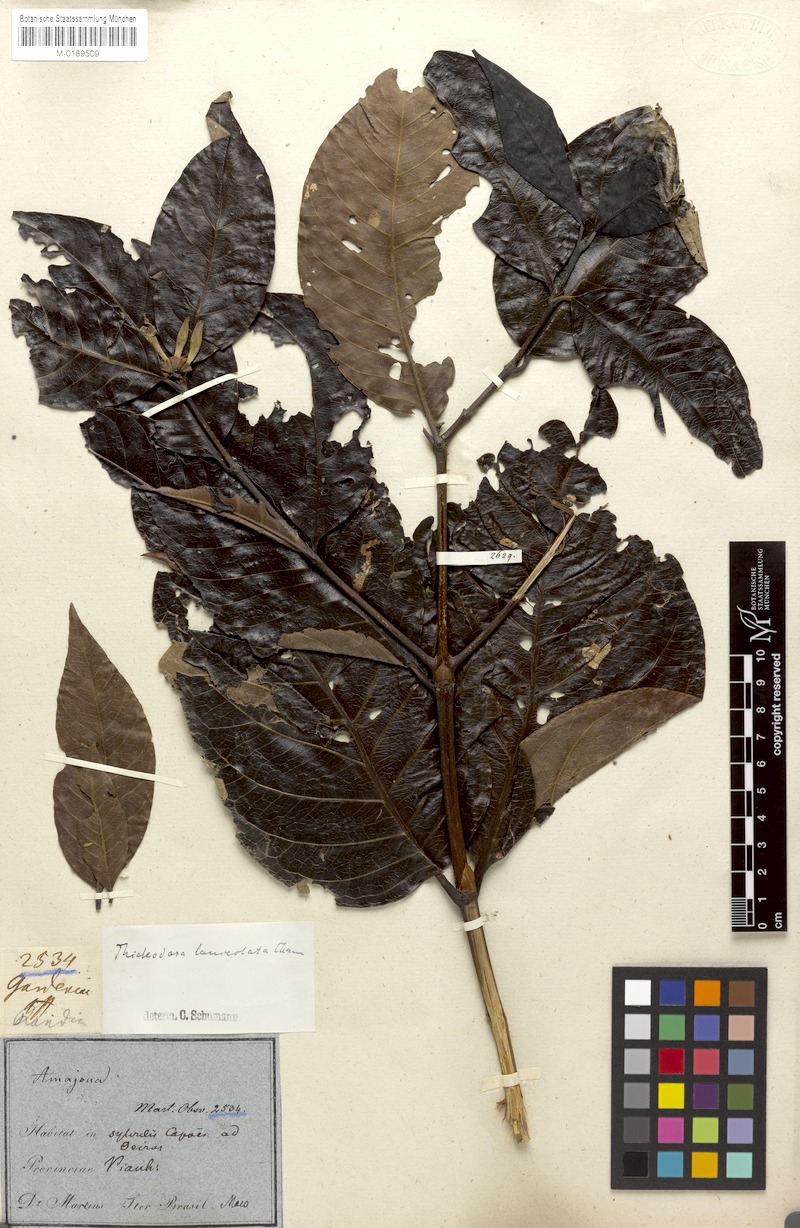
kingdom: Plantae
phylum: Tracheophyta
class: Magnoliopsida
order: Gentianales
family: Rubiaceae
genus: Alibertia
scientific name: Alibertia edulis
